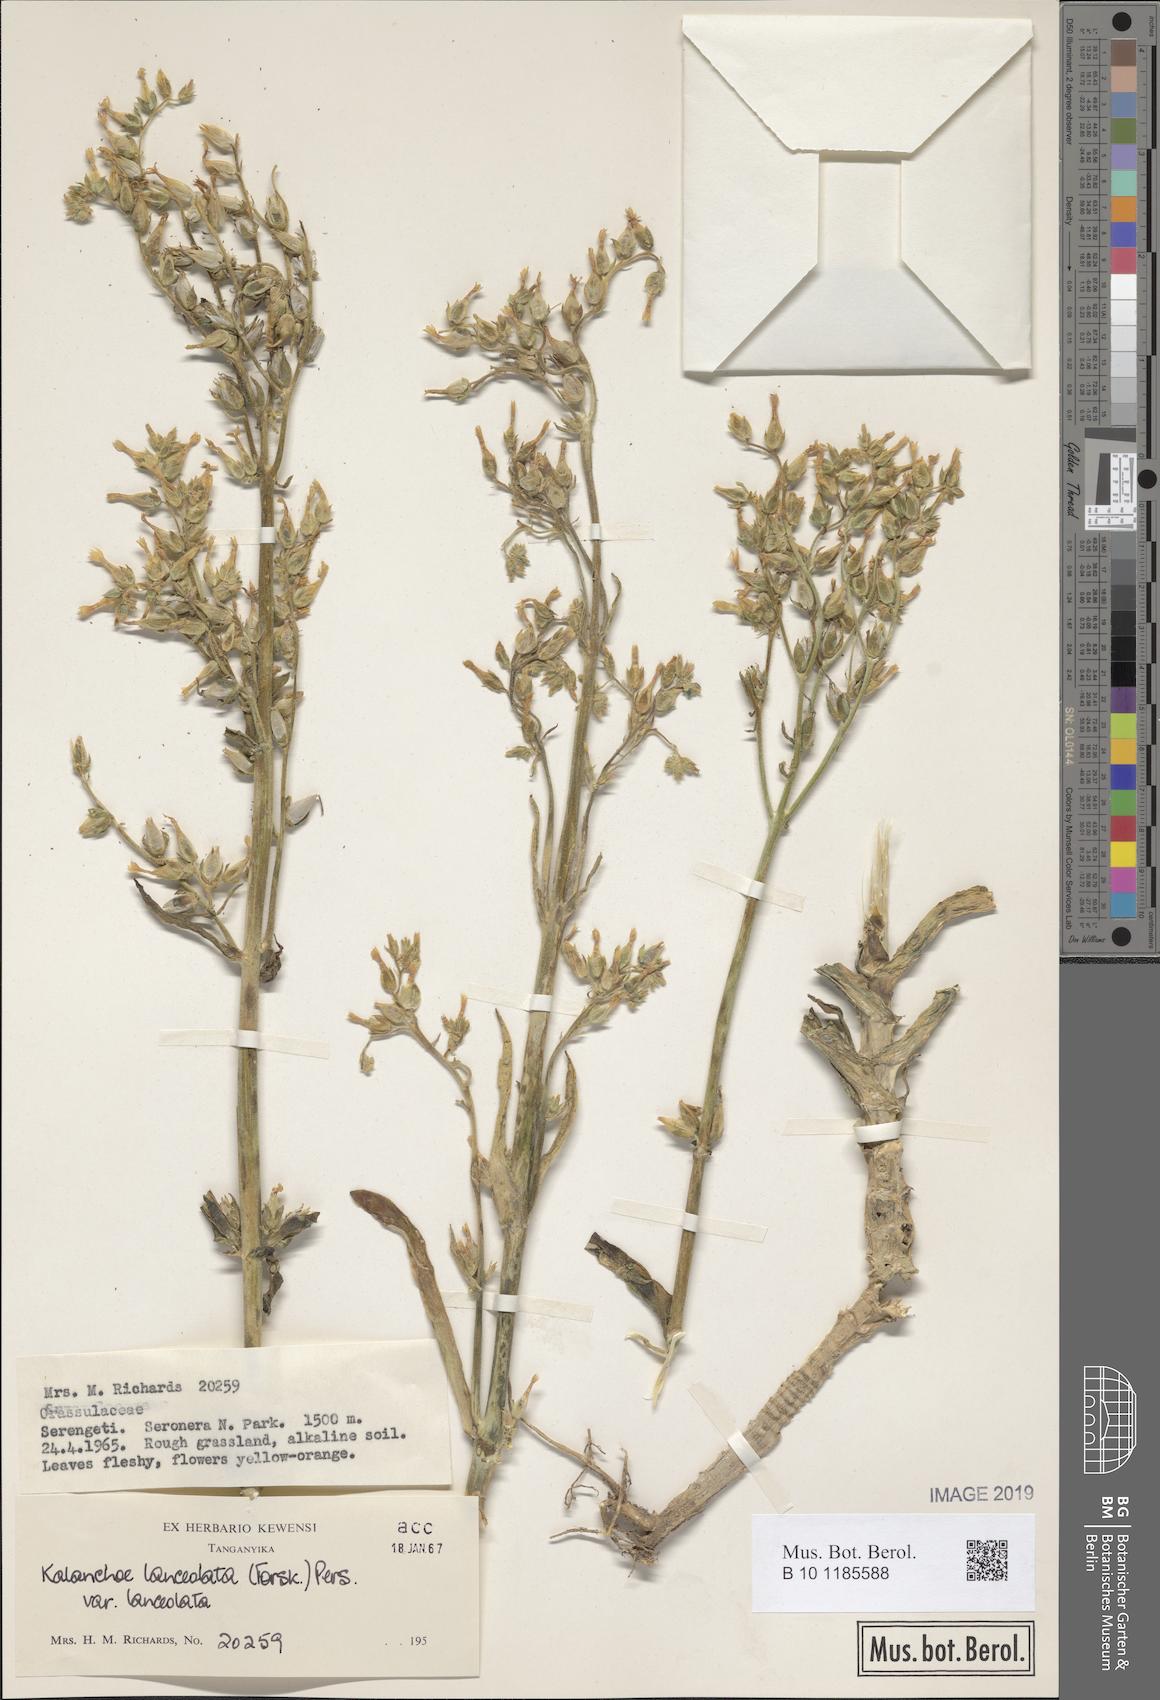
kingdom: Plantae
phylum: Tracheophyta
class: Magnoliopsida
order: Saxifragales
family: Crassulaceae
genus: Kalanchoe
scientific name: Kalanchoe lanceolata
